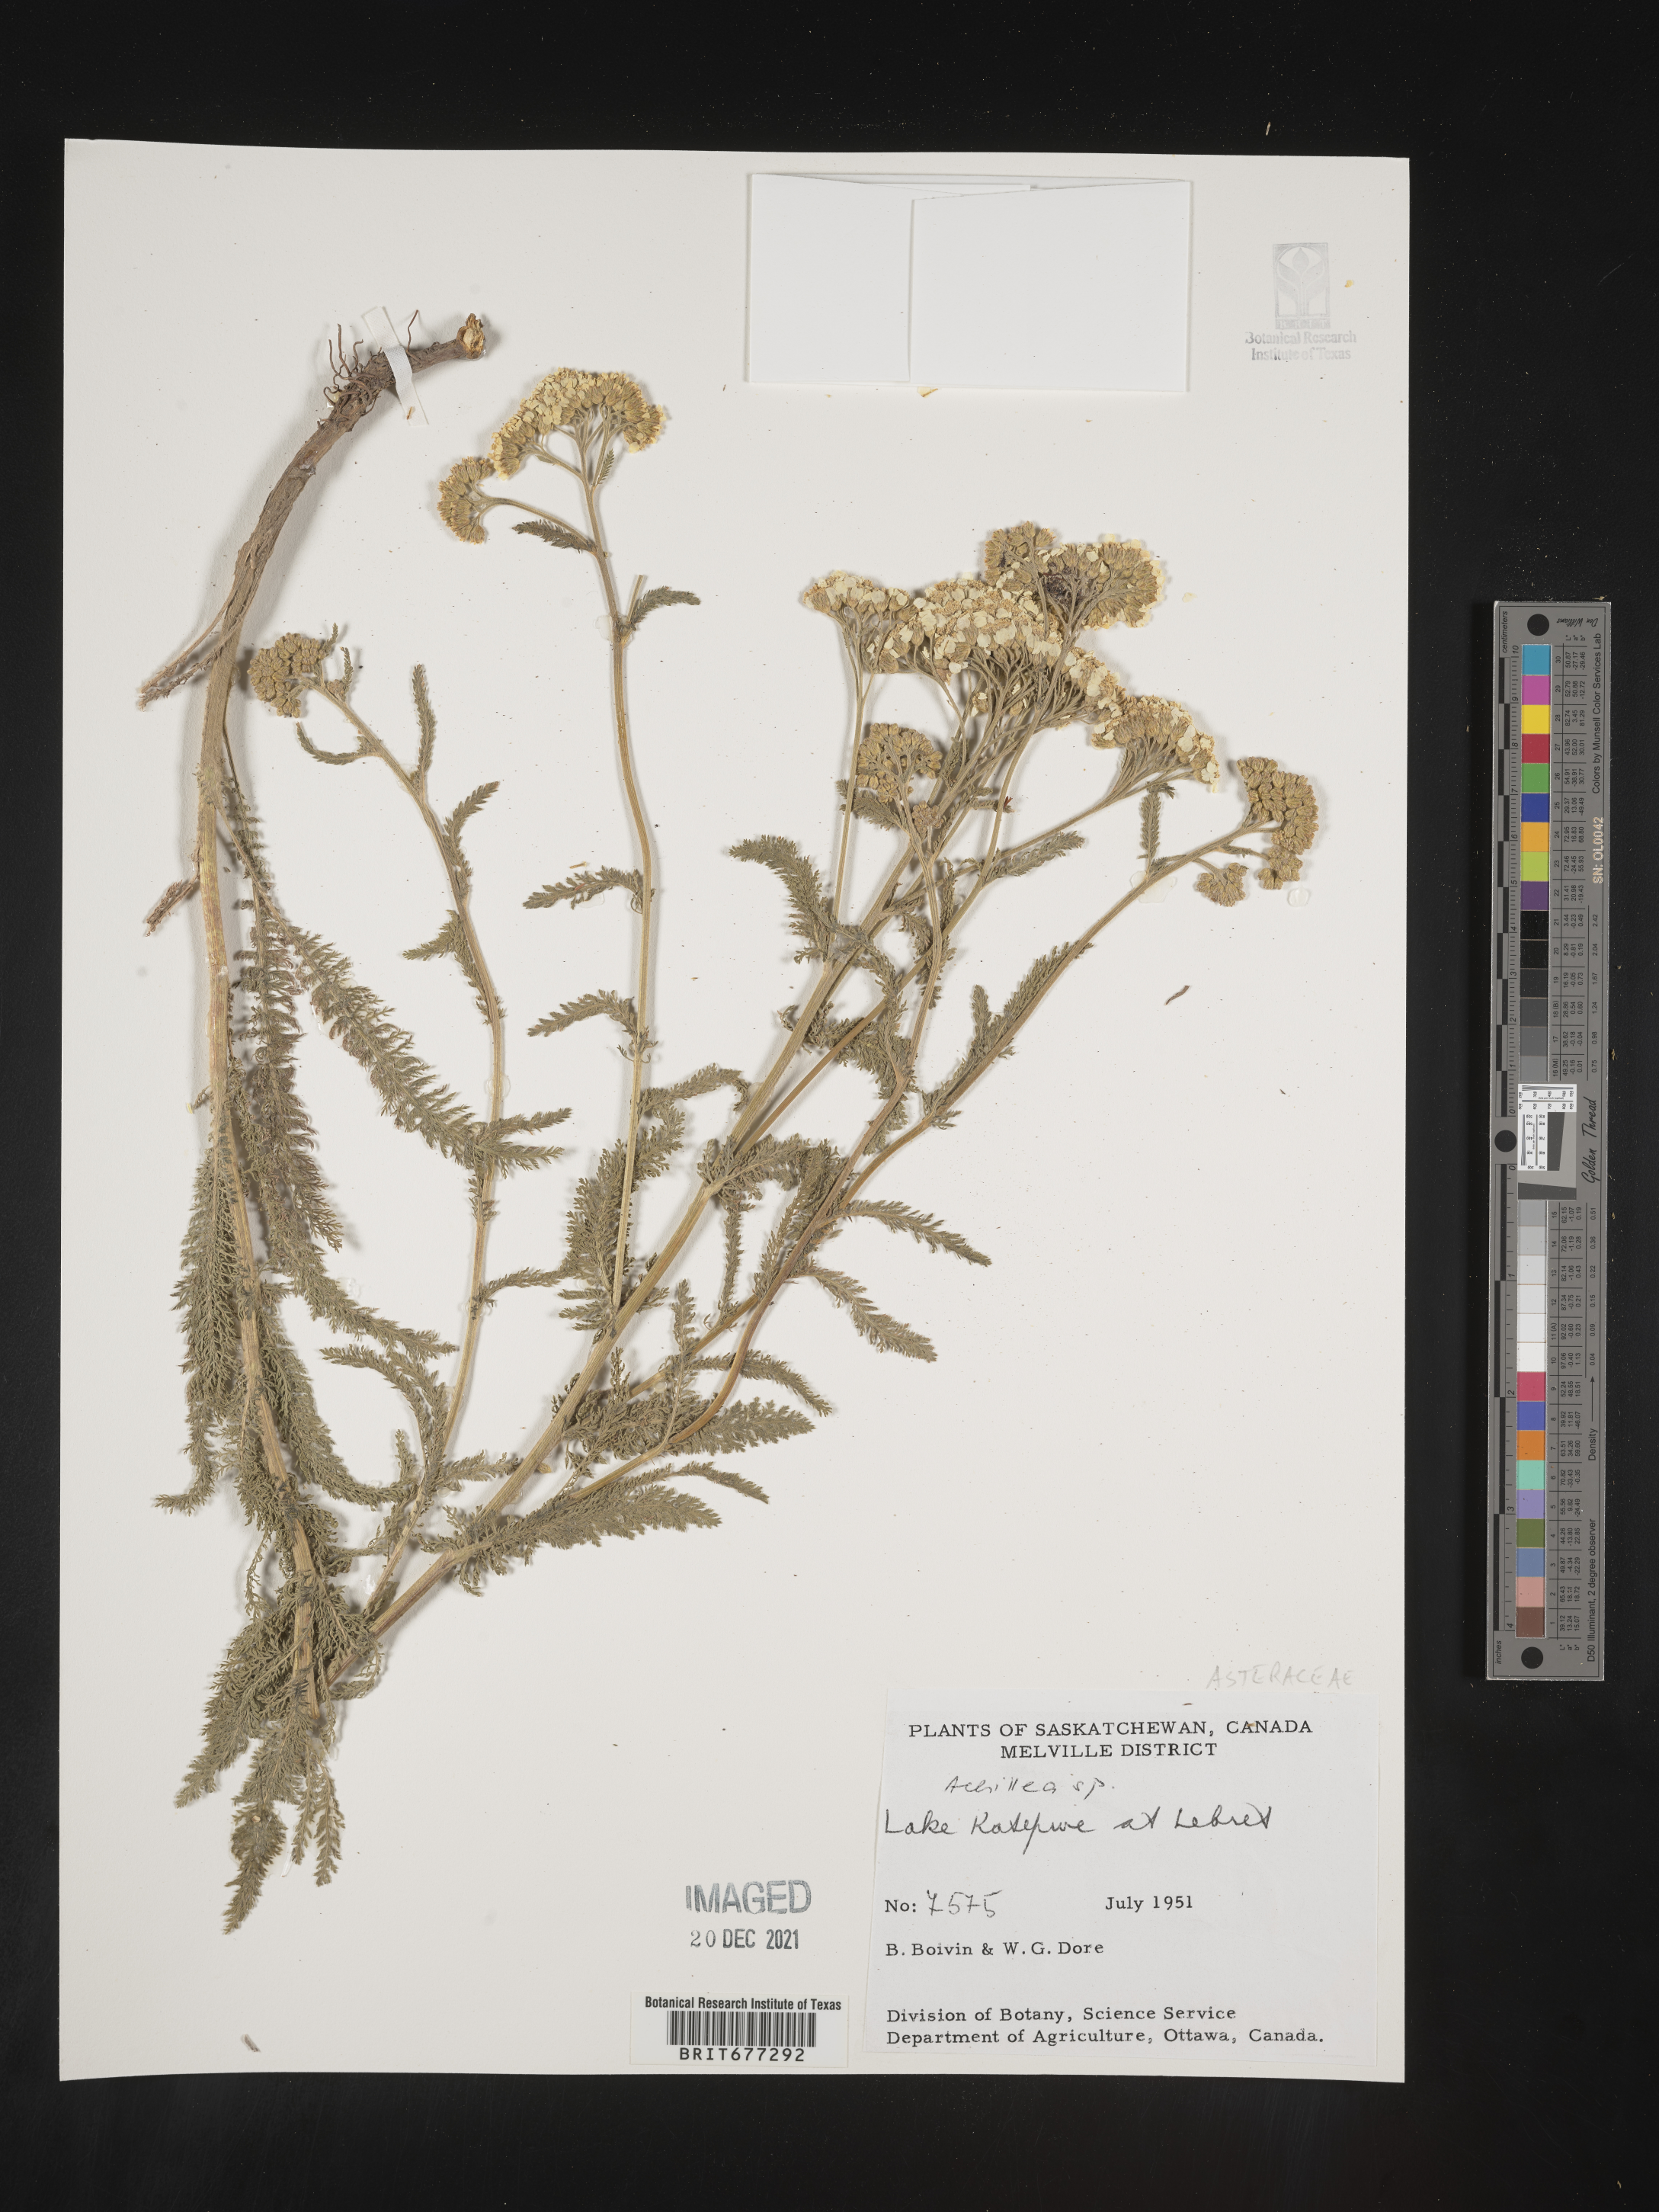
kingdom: Plantae
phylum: Tracheophyta
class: Magnoliopsida
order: Asterales
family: Asteraceae
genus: Achillea
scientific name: Achillea
